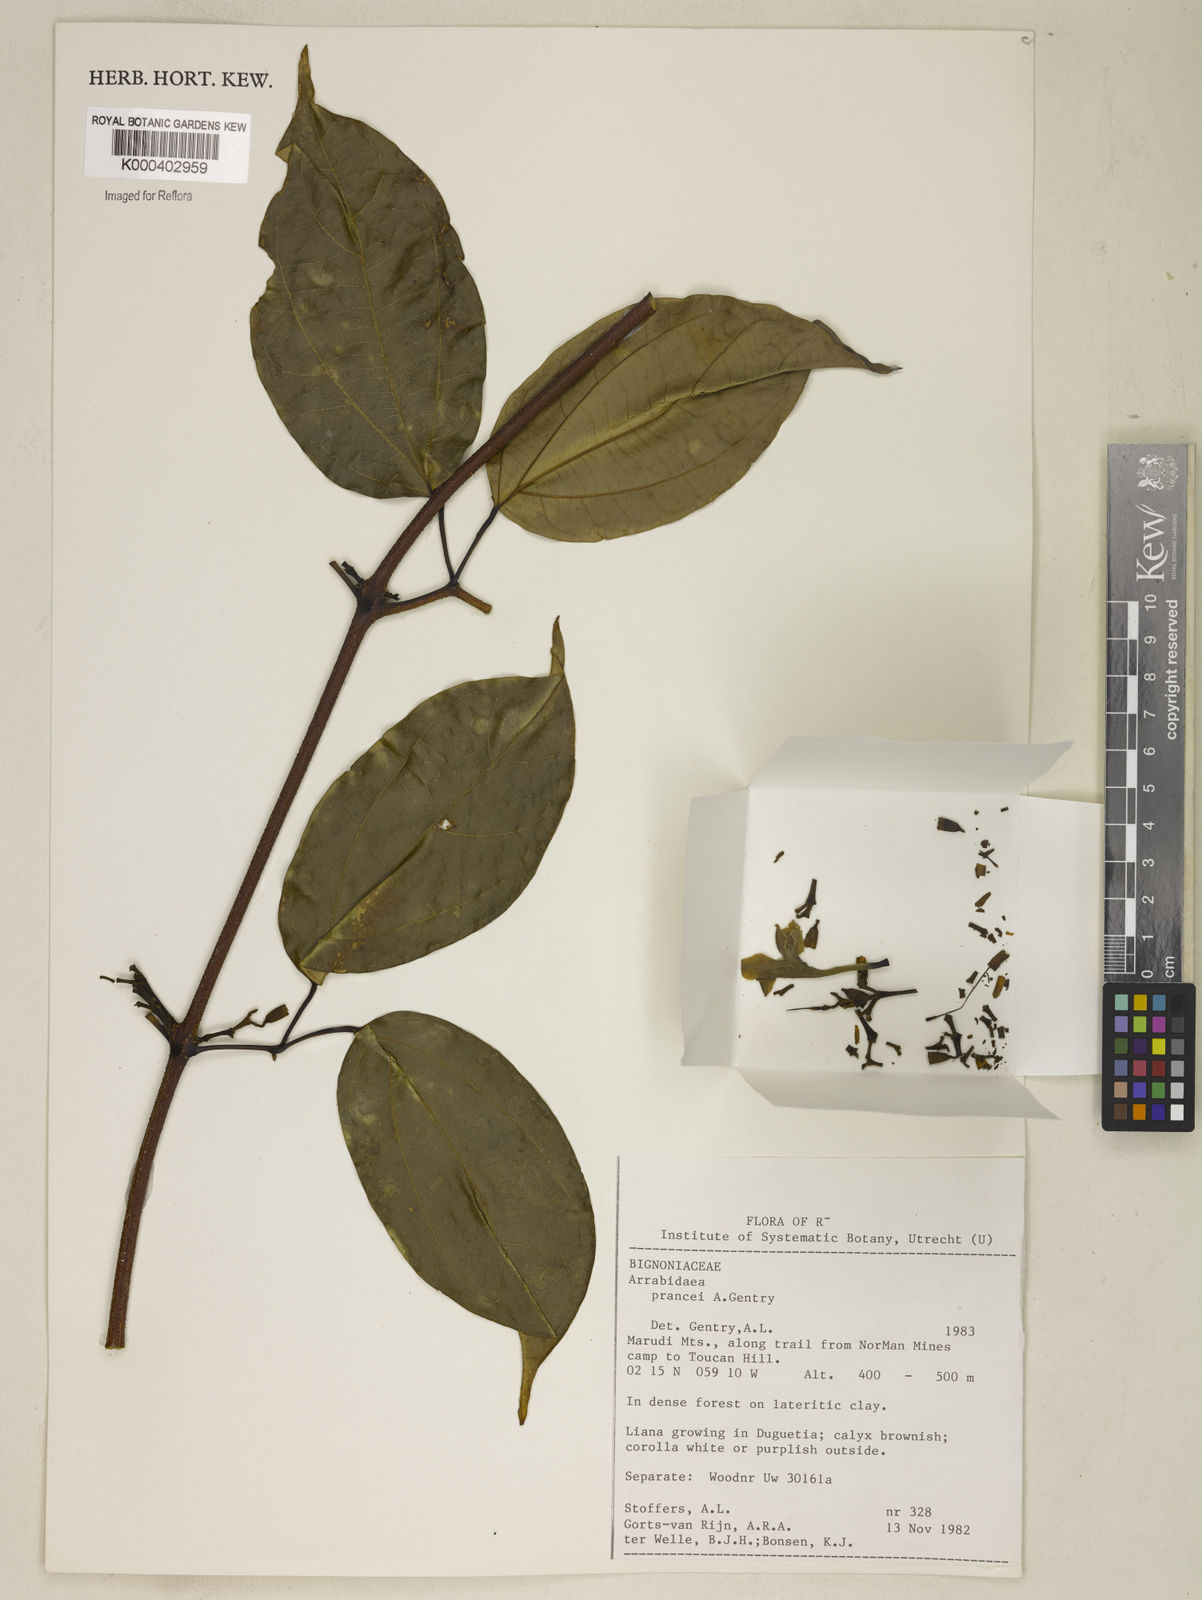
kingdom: Plantae
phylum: Tracheophyta
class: Magnoliopsida
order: Lamiales
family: Bignoniaceae
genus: Fridericia
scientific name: Fridericia prancei
